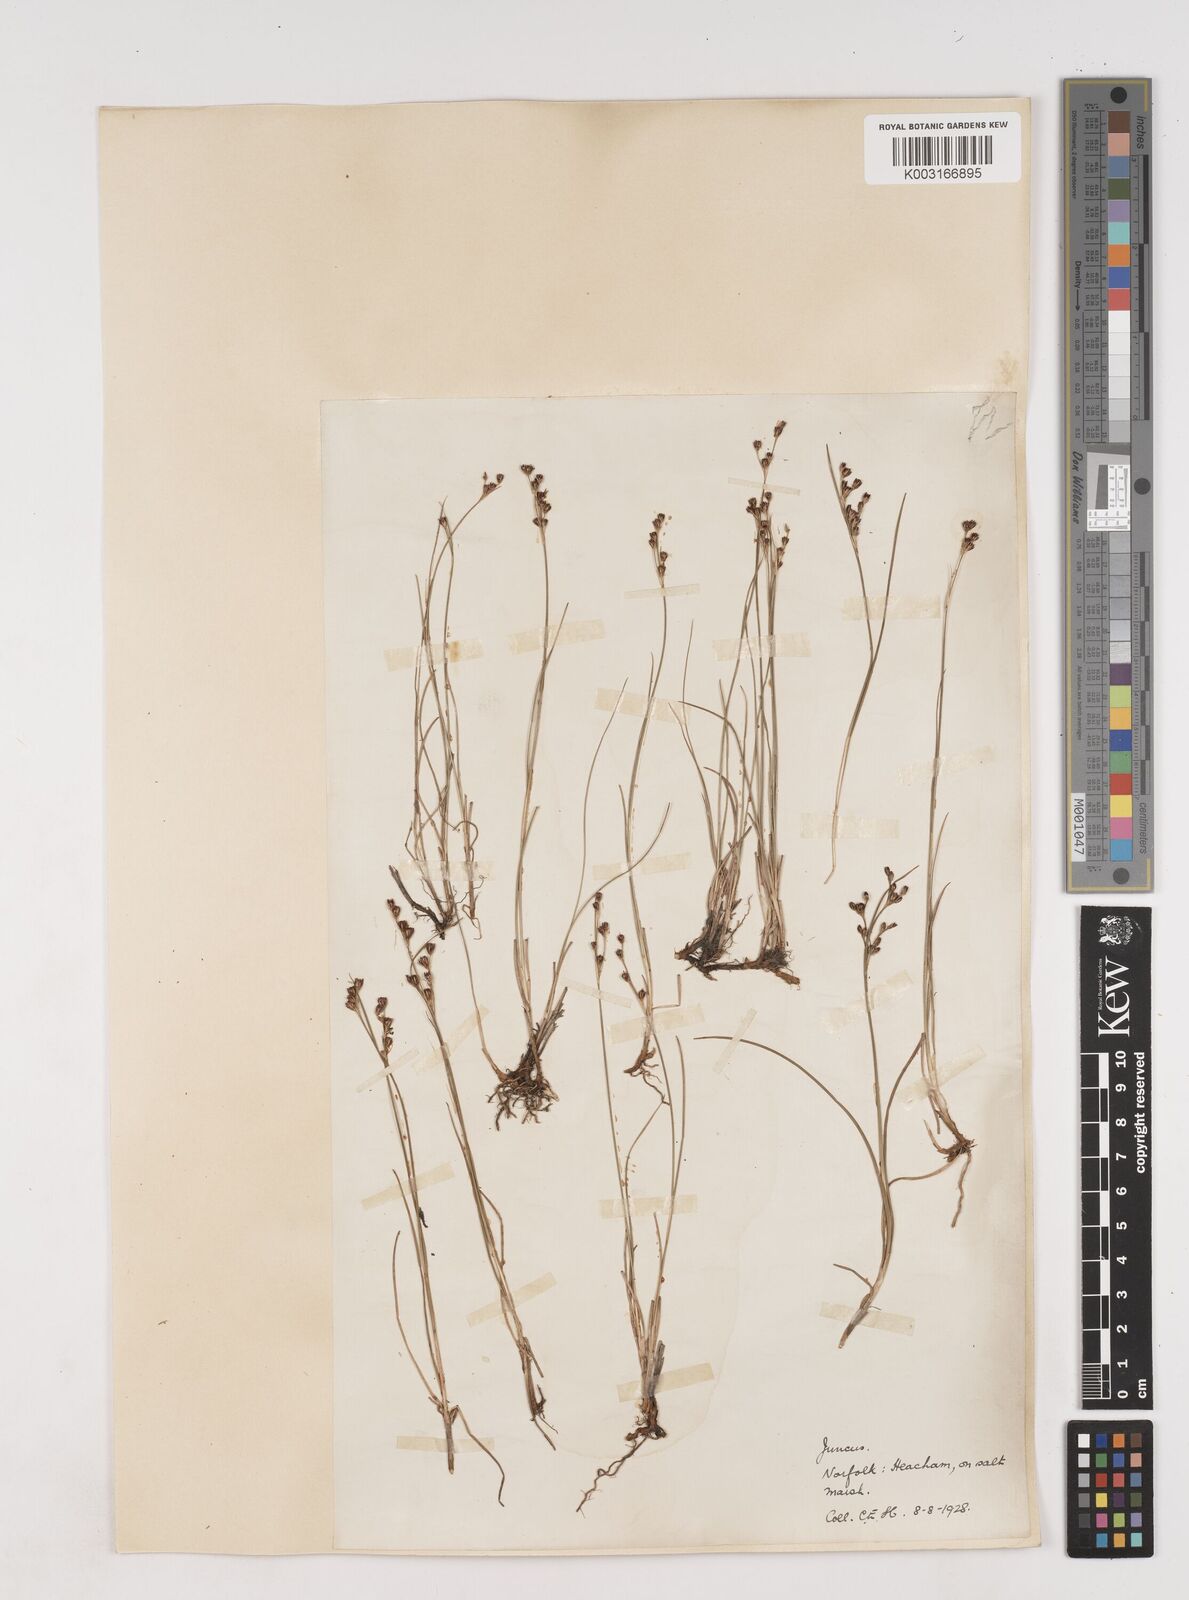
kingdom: Plantae
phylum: Tracheophyta
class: Liliopsida
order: Poales
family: Juncaceae
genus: Juncus
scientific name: Juncus gerardi
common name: Saltmarsh rush
